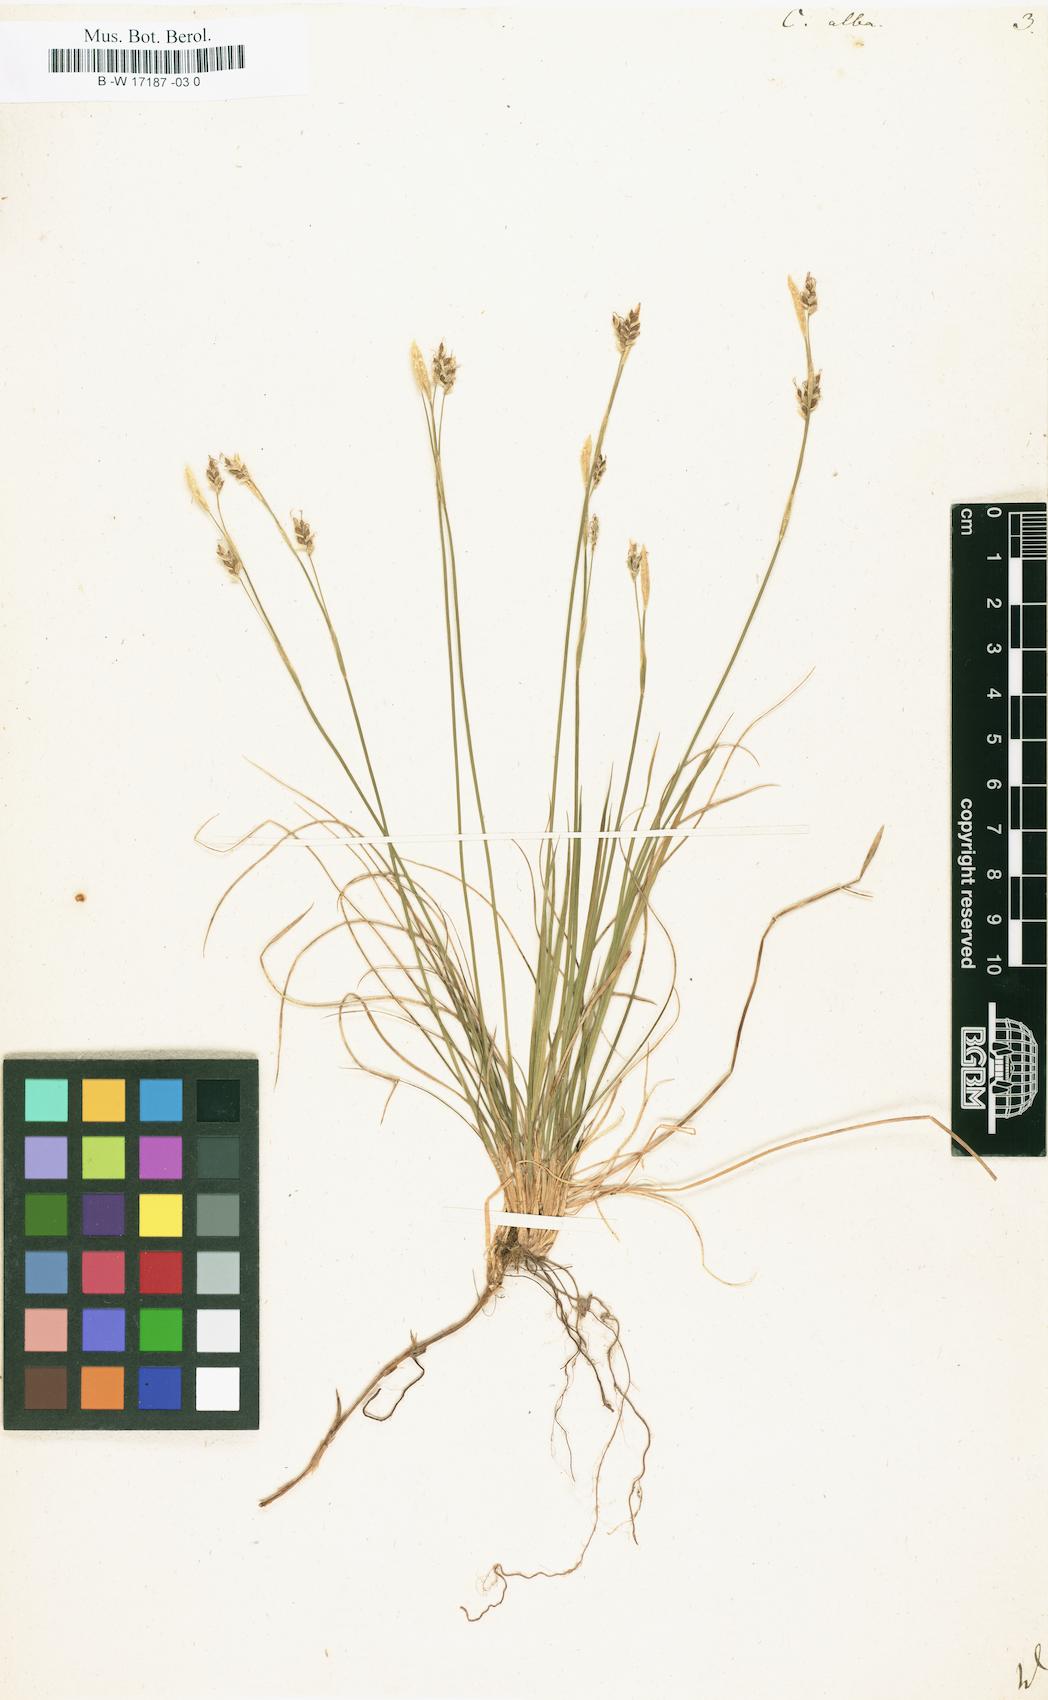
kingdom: Plantae
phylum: Tracheophyta
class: Liliopsida
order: Poales
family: Cyperaceae
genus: Carex
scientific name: Carex alba
